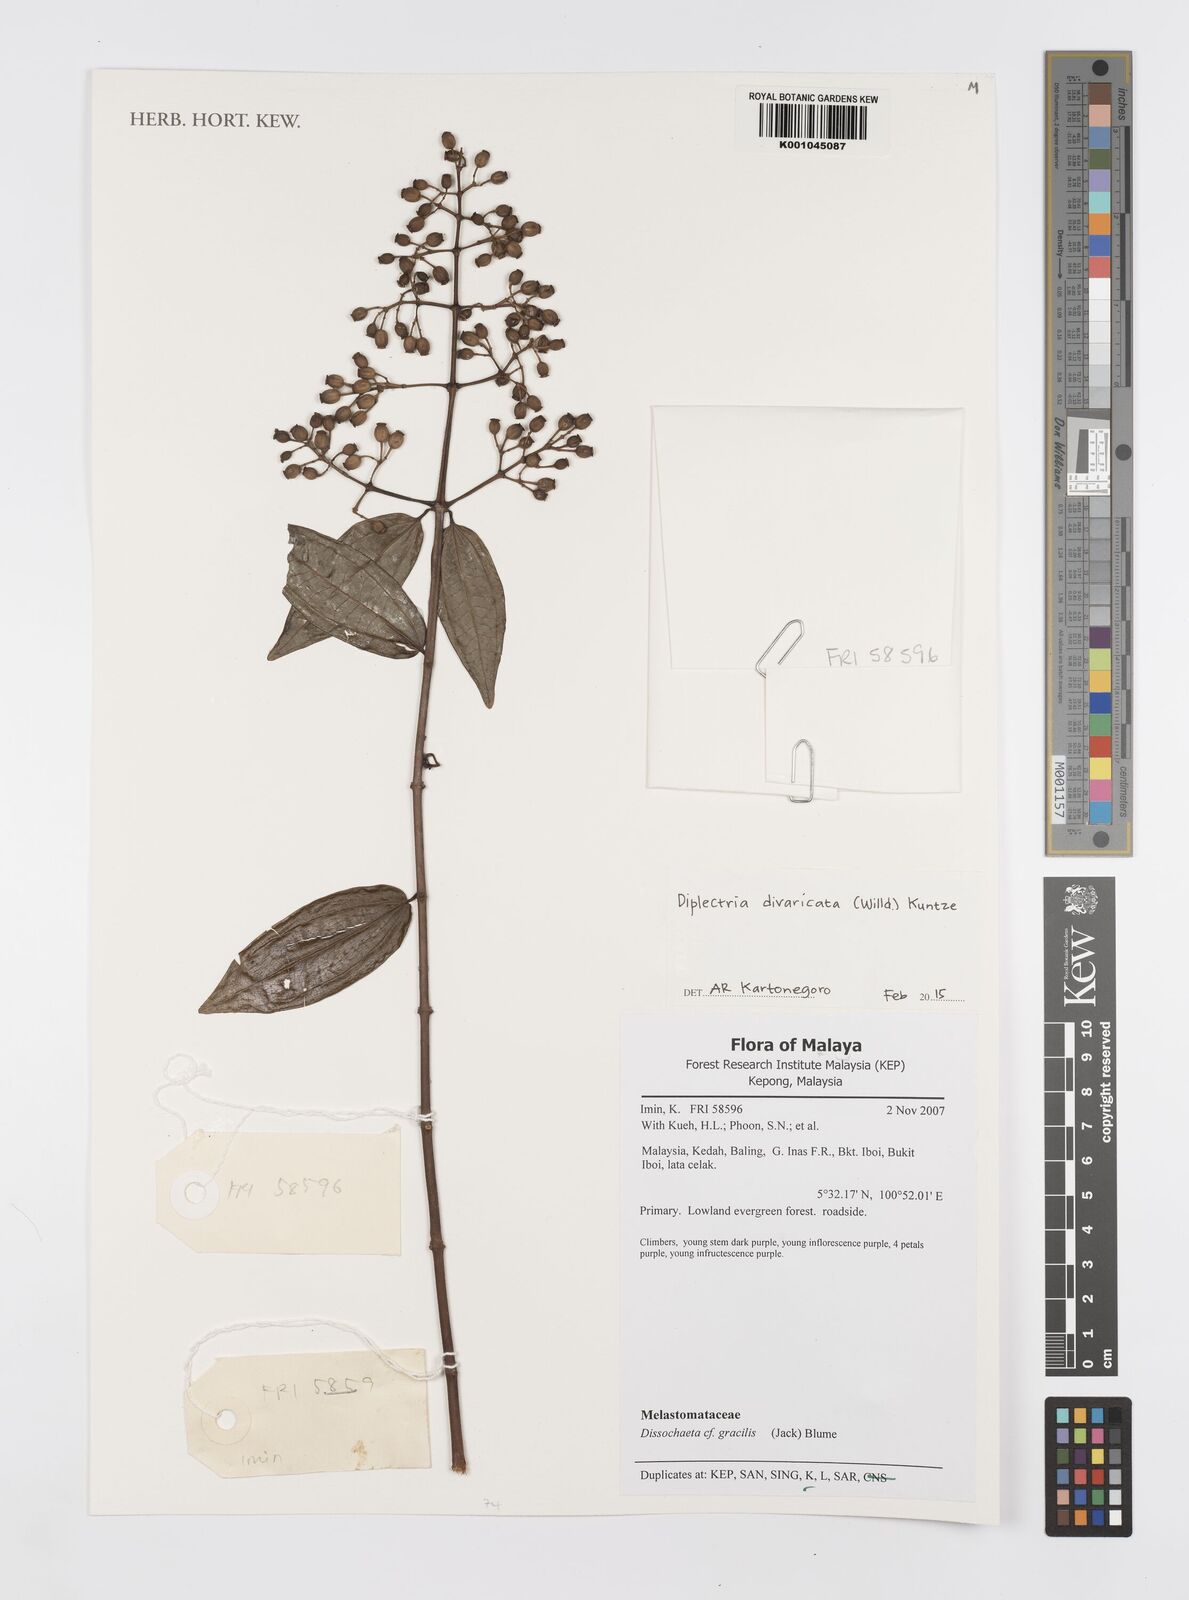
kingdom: Plantae
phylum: Tracheophyta
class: Magnoliopsida
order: Myrtales
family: Melastomataceae
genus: Diplectria
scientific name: Diplectria divaricata
